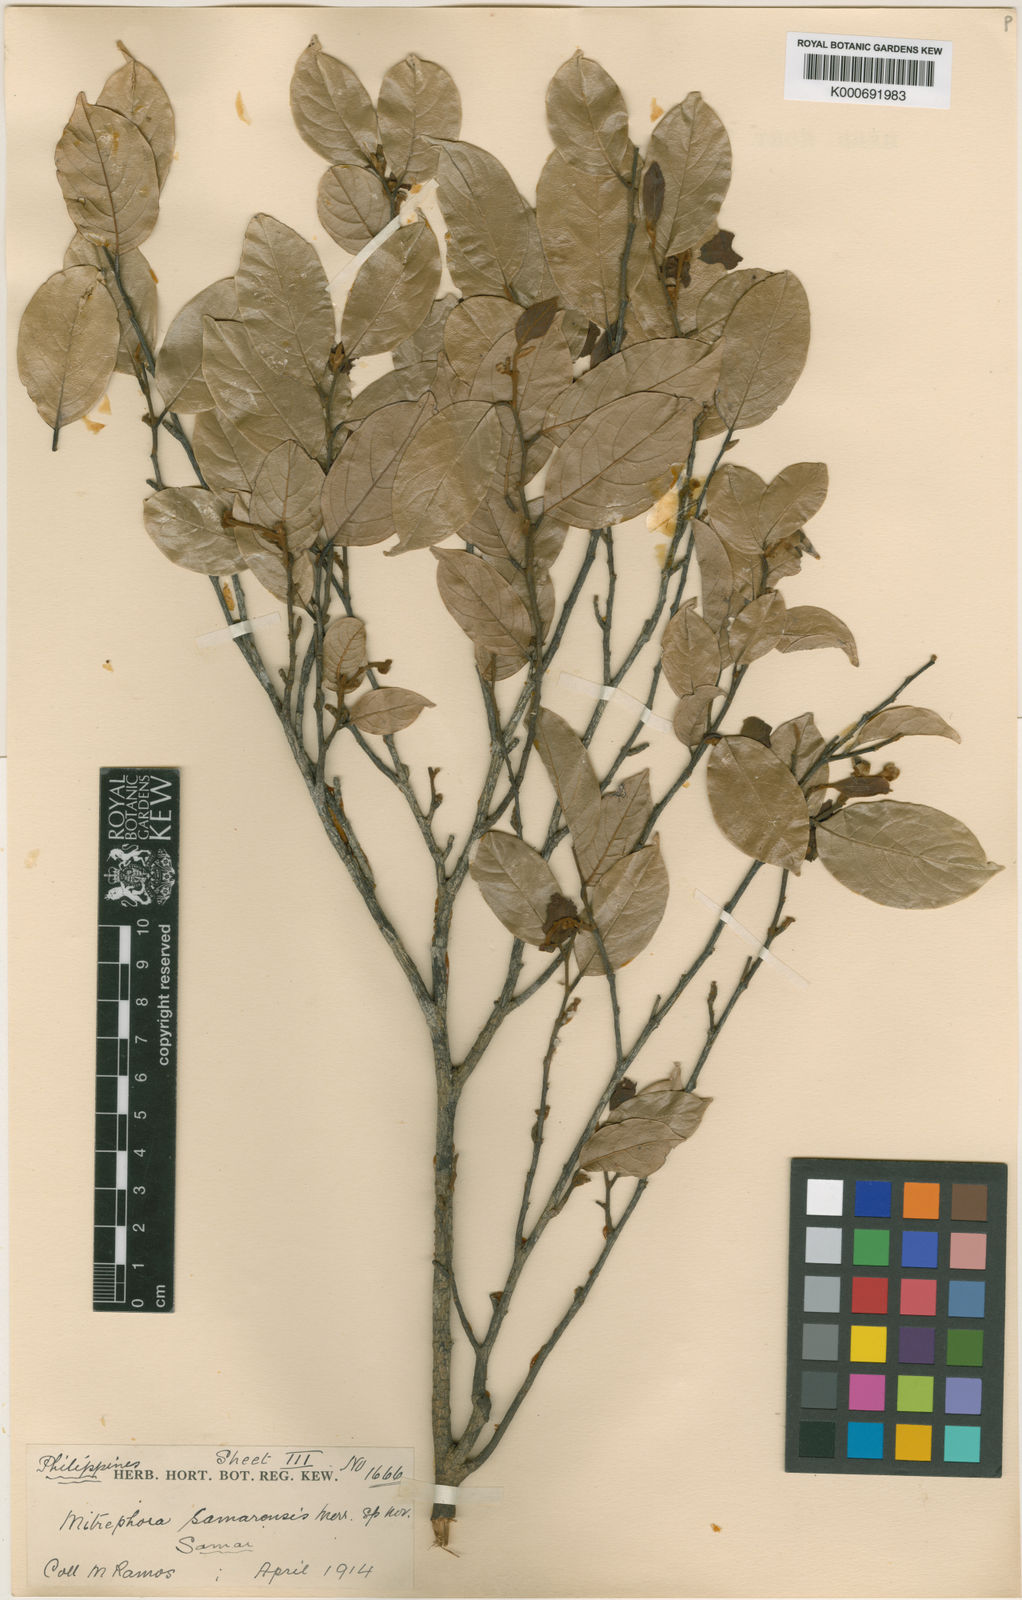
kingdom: Plantae
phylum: Tracheophyta
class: Magnoliopsida
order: Magnoliales
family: Annonaceae
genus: Mitrephora
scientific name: Mitrephora samarensis
